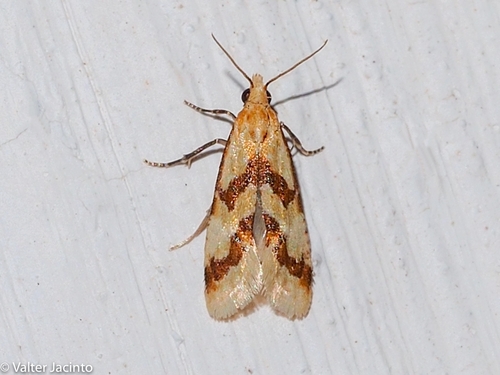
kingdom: Animalia
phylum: Arthropoda
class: Insecta
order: Lepidoptera
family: Tortricidae
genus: Aethes
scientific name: Aethes bilbaensis
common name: Samphire conch
